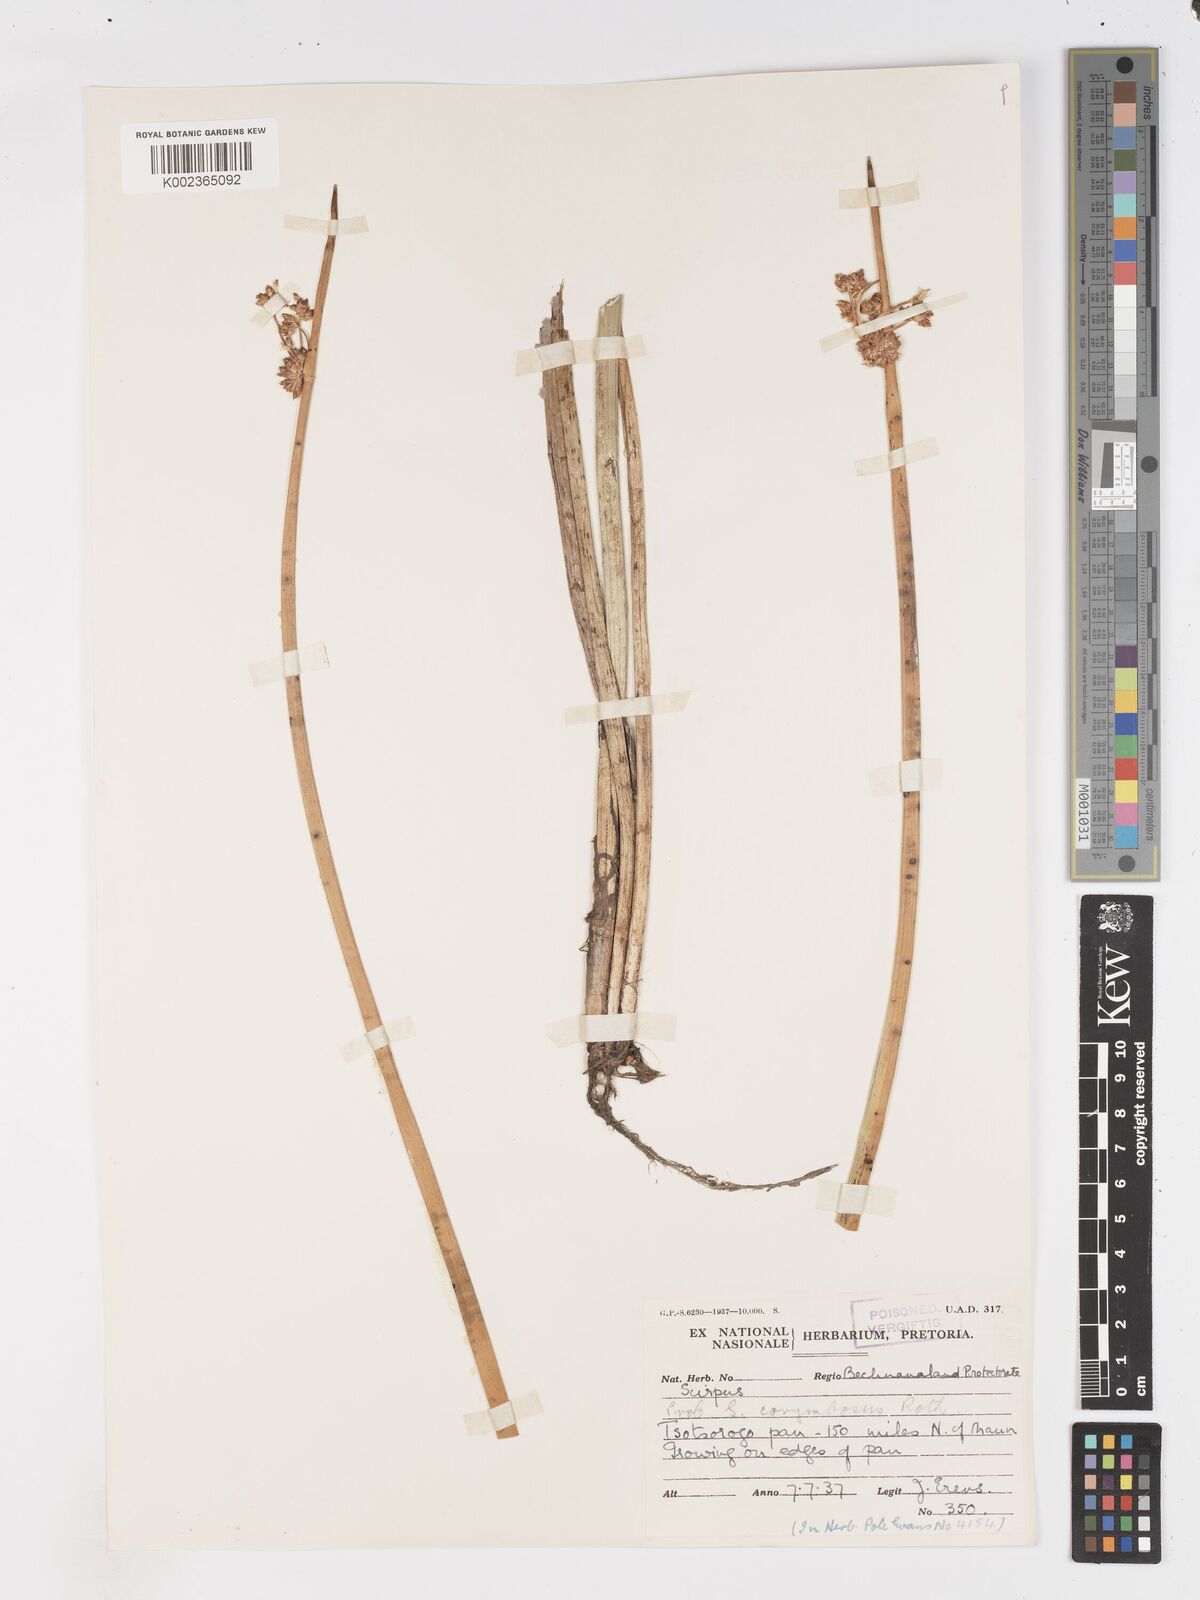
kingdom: Plantae
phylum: Tracheophyta
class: Liliopsida
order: Poales
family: Cyperaceae
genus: Schoenoplectiella
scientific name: Schoenoplectiella brachyceras
